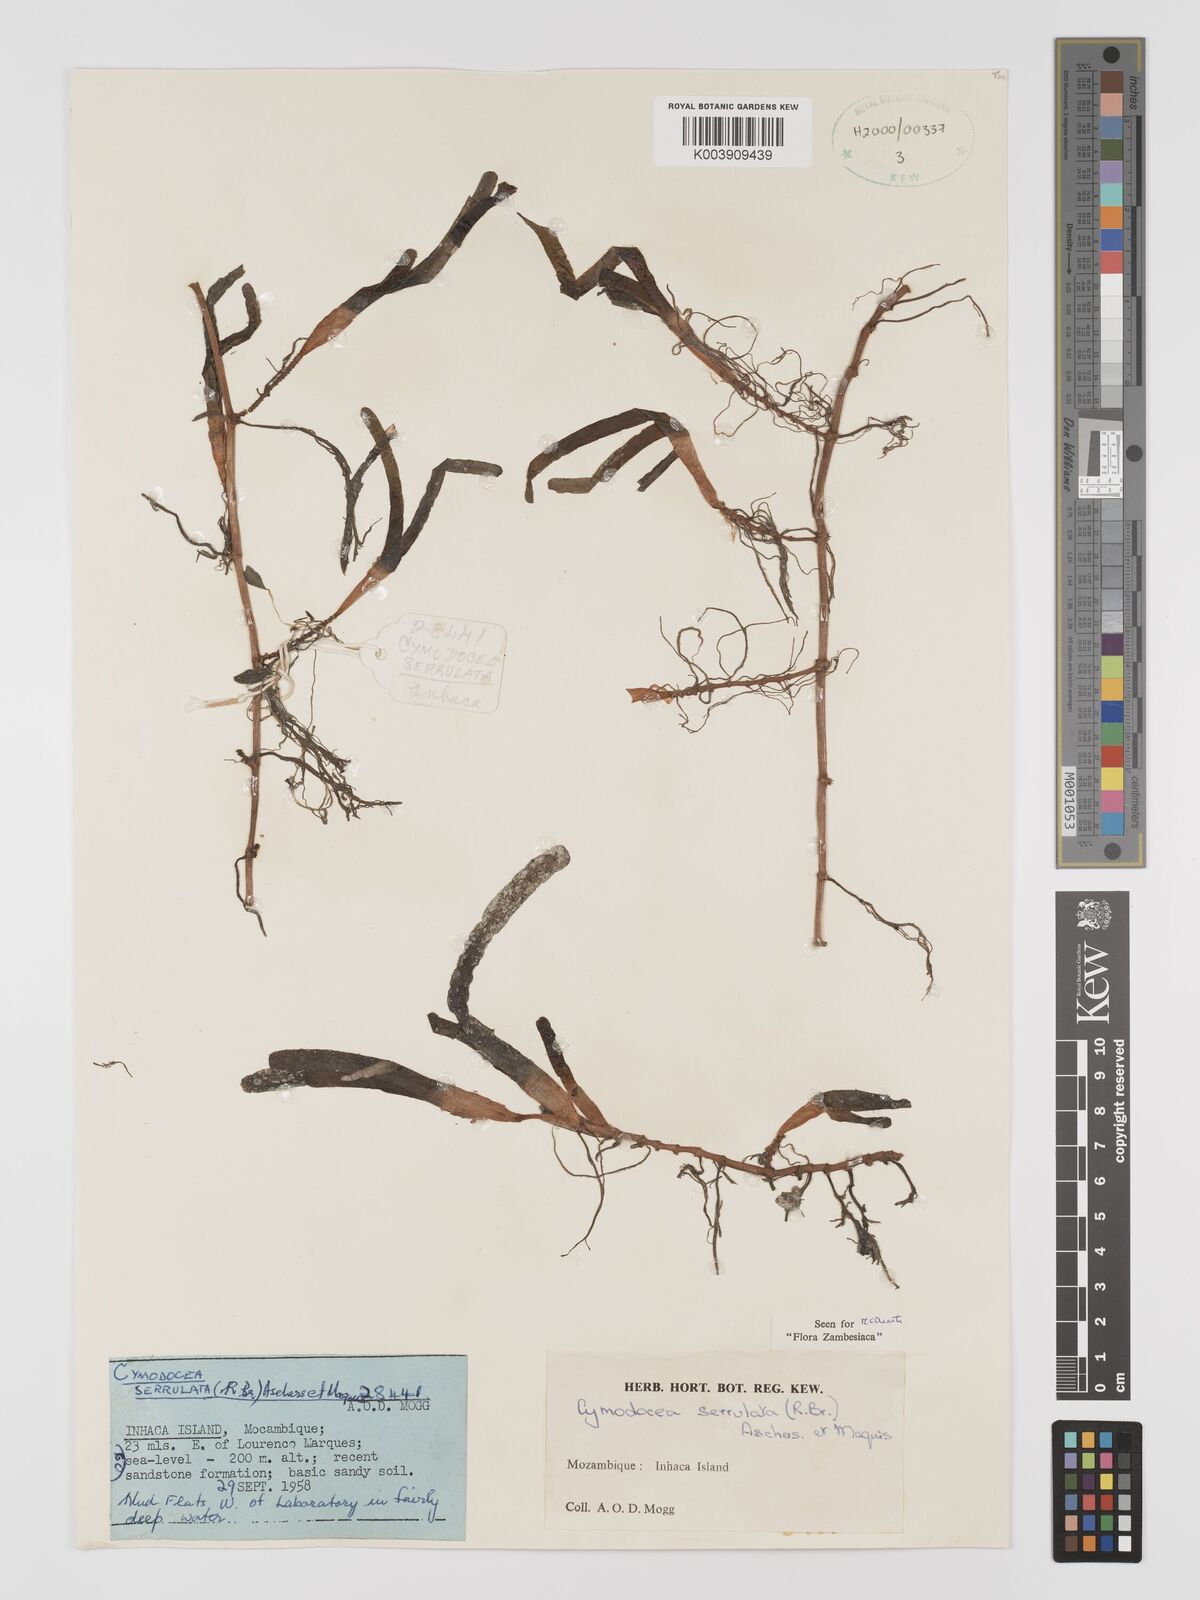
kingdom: Plantae
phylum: Tracheophyta
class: Liliopsida
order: Alismatales
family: Cymodoceaceae
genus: Oceana
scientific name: Oceana serrulata
